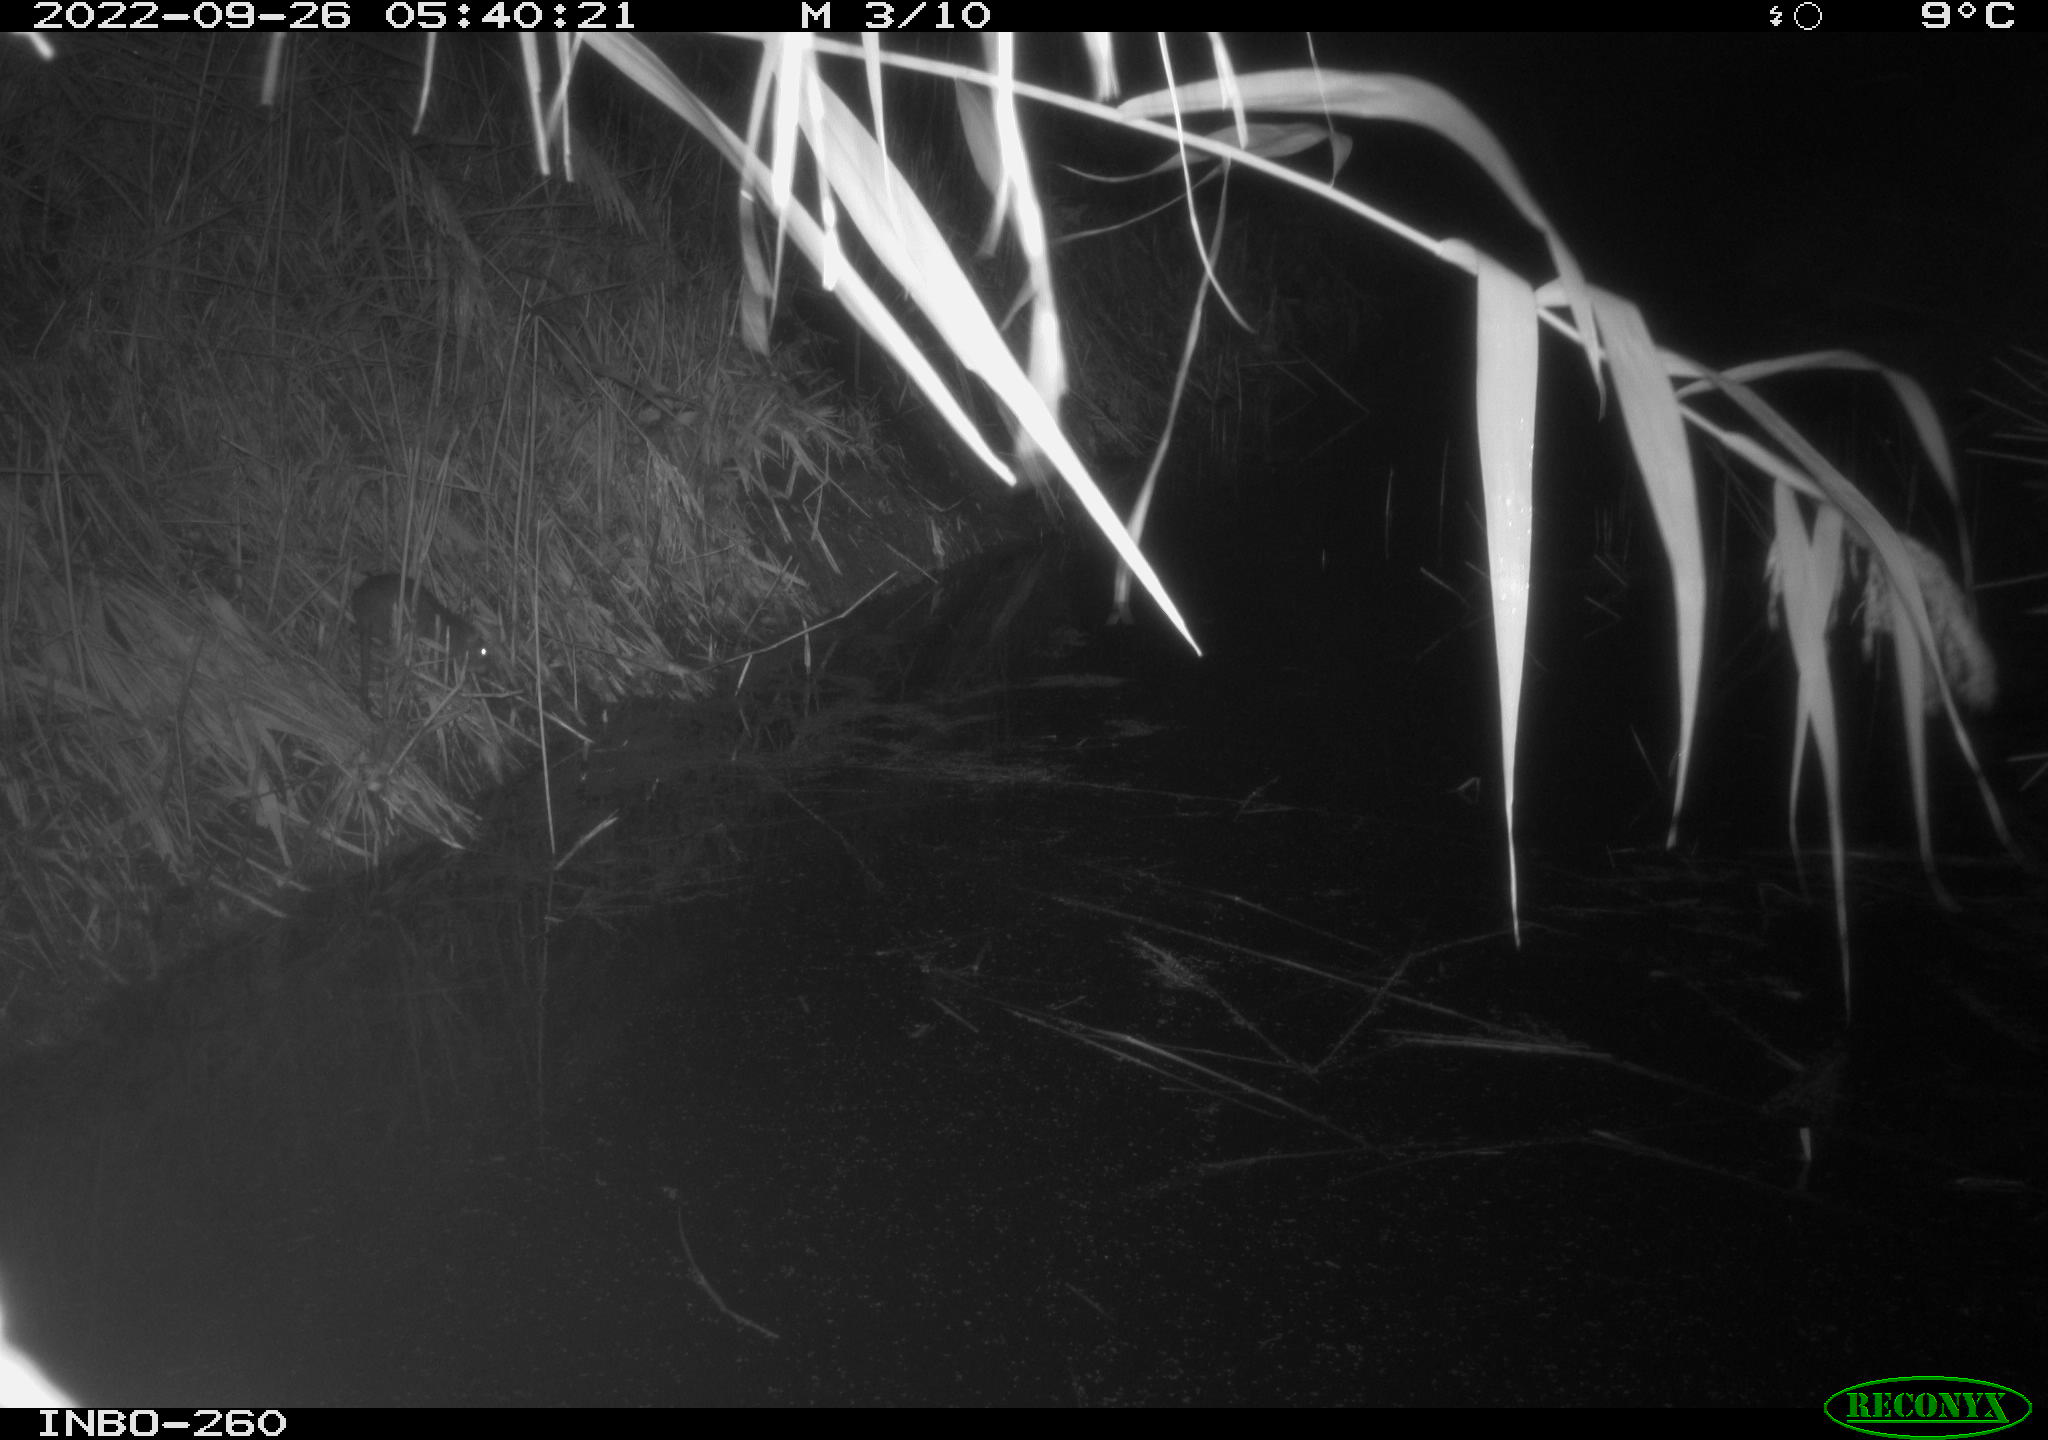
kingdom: Animalia
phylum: Chordata
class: Mammalia
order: Rodentia
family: Muridae
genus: Rattus
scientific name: Rattus norvegicus
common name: Brown rat
